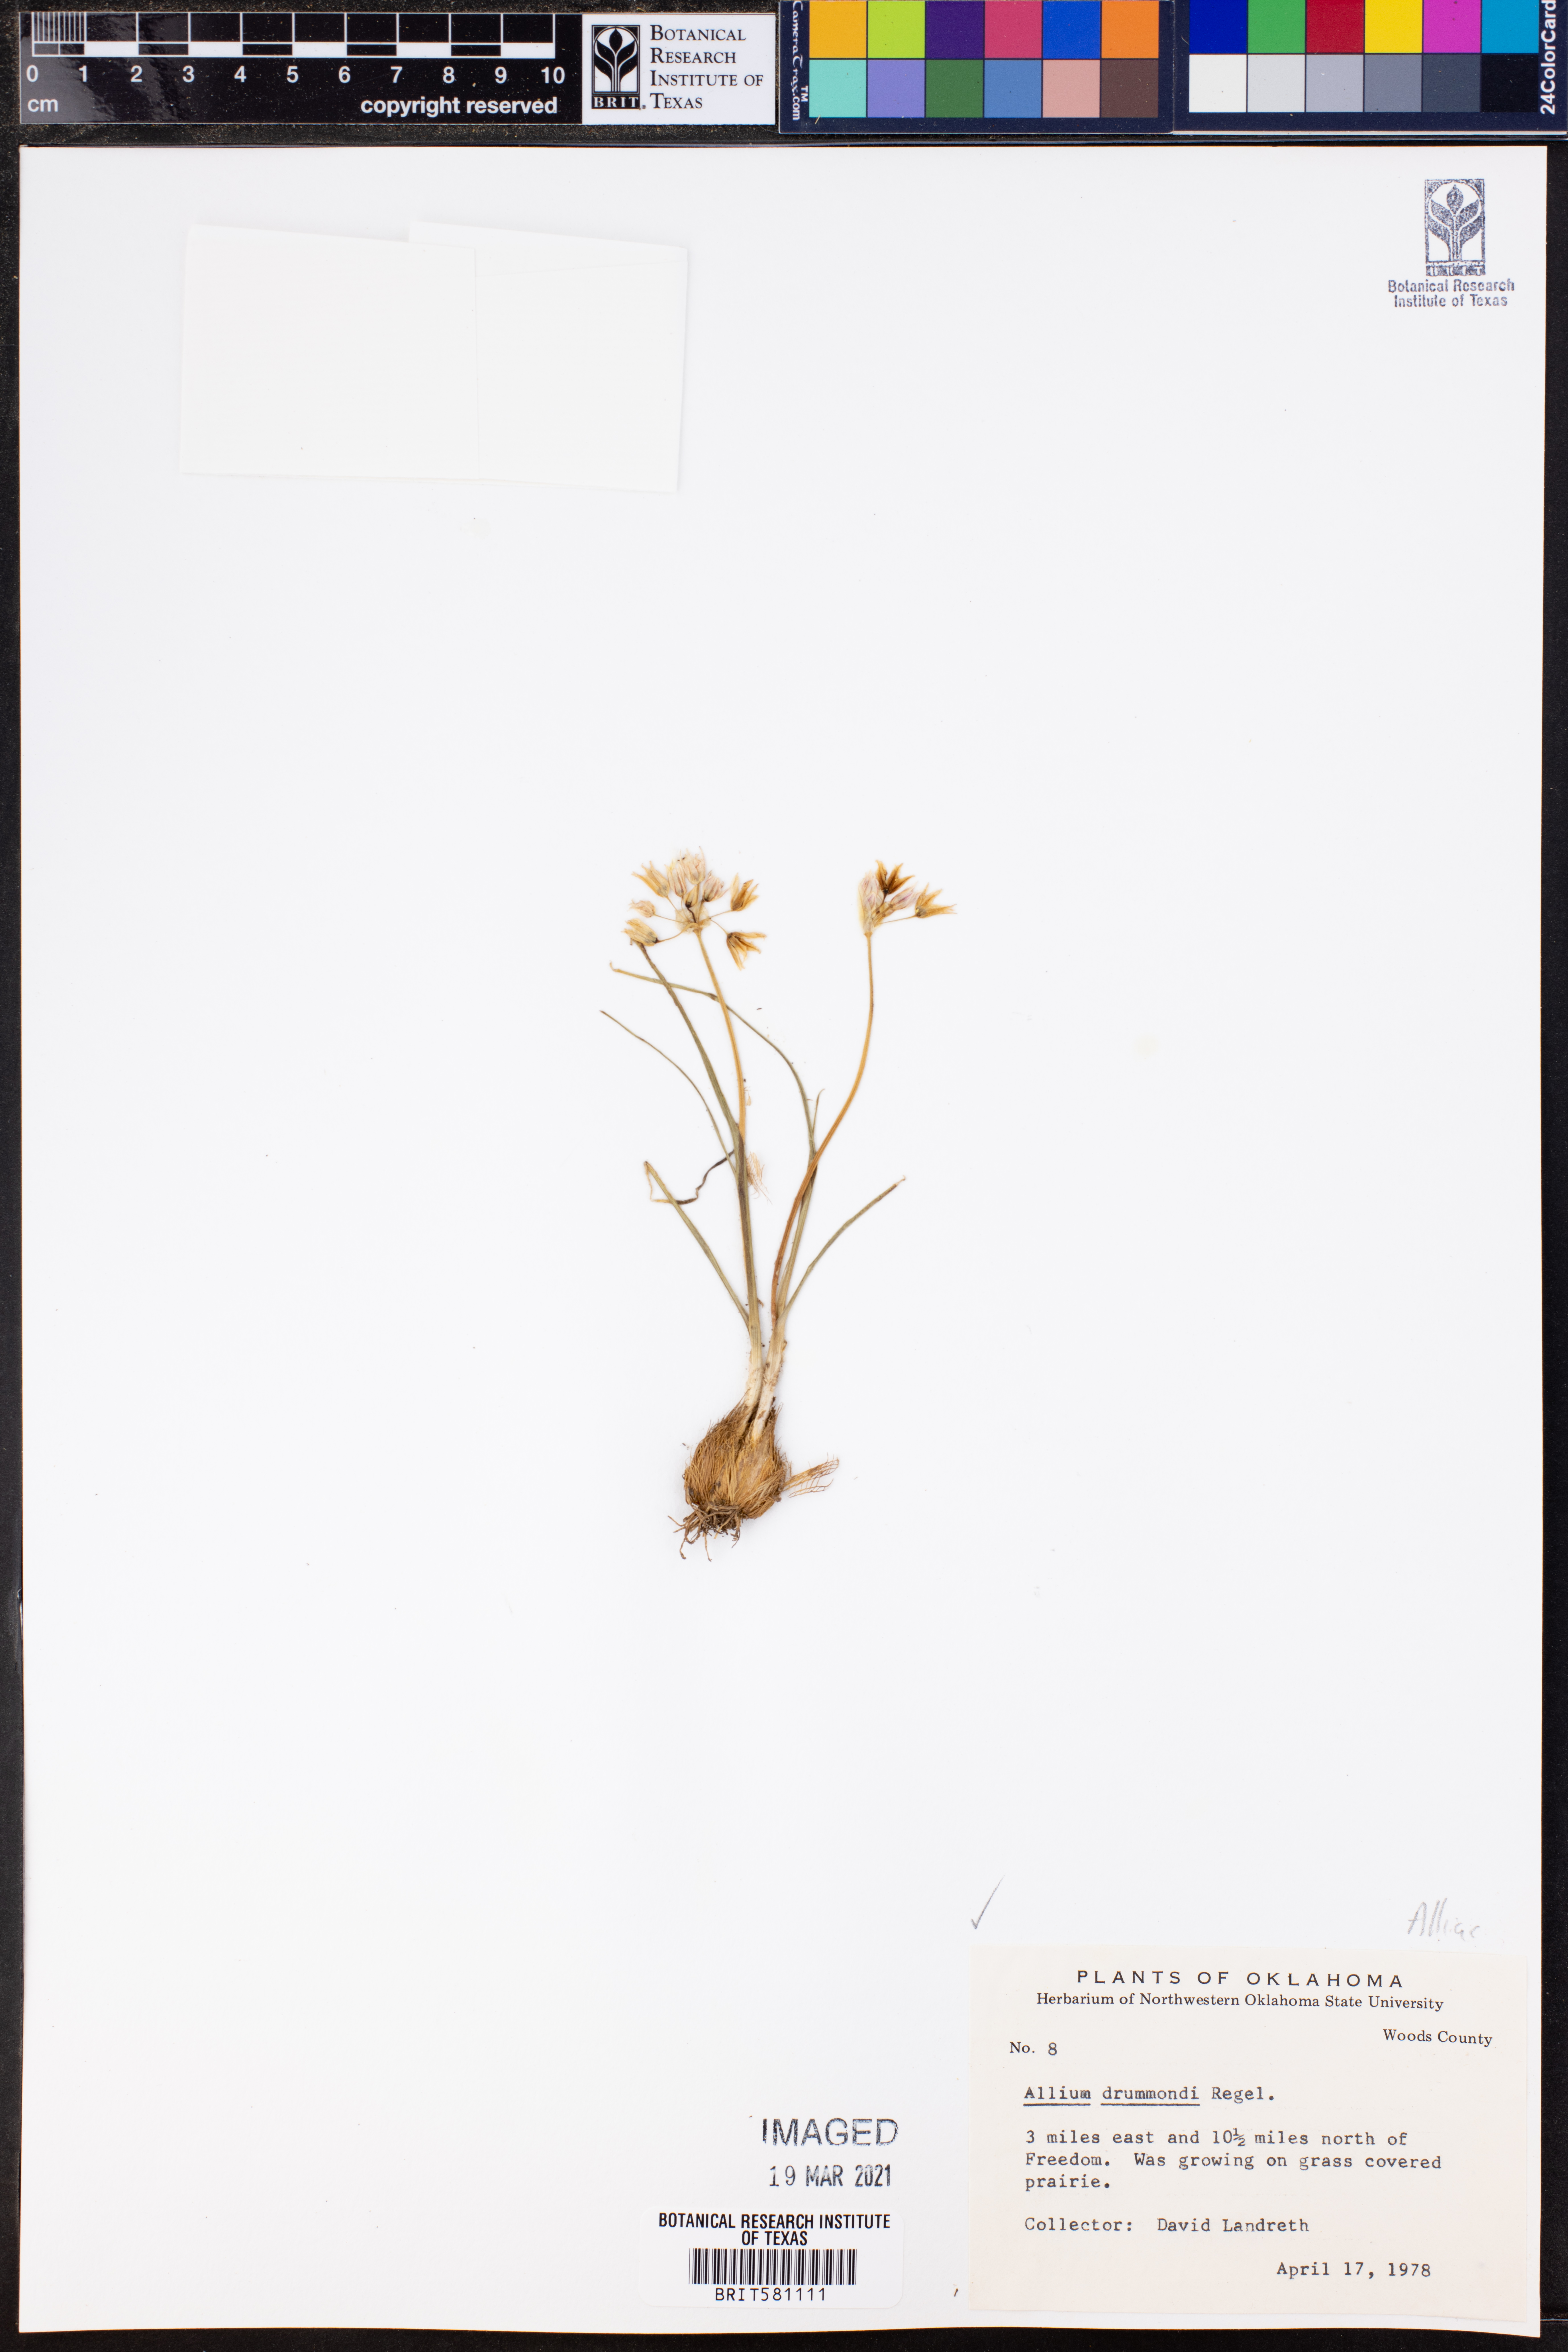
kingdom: Plantae
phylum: Tracheophyta
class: Liliopsida
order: Asparagales
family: Amaryllidaceae
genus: Allium
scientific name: Allium drummondii
